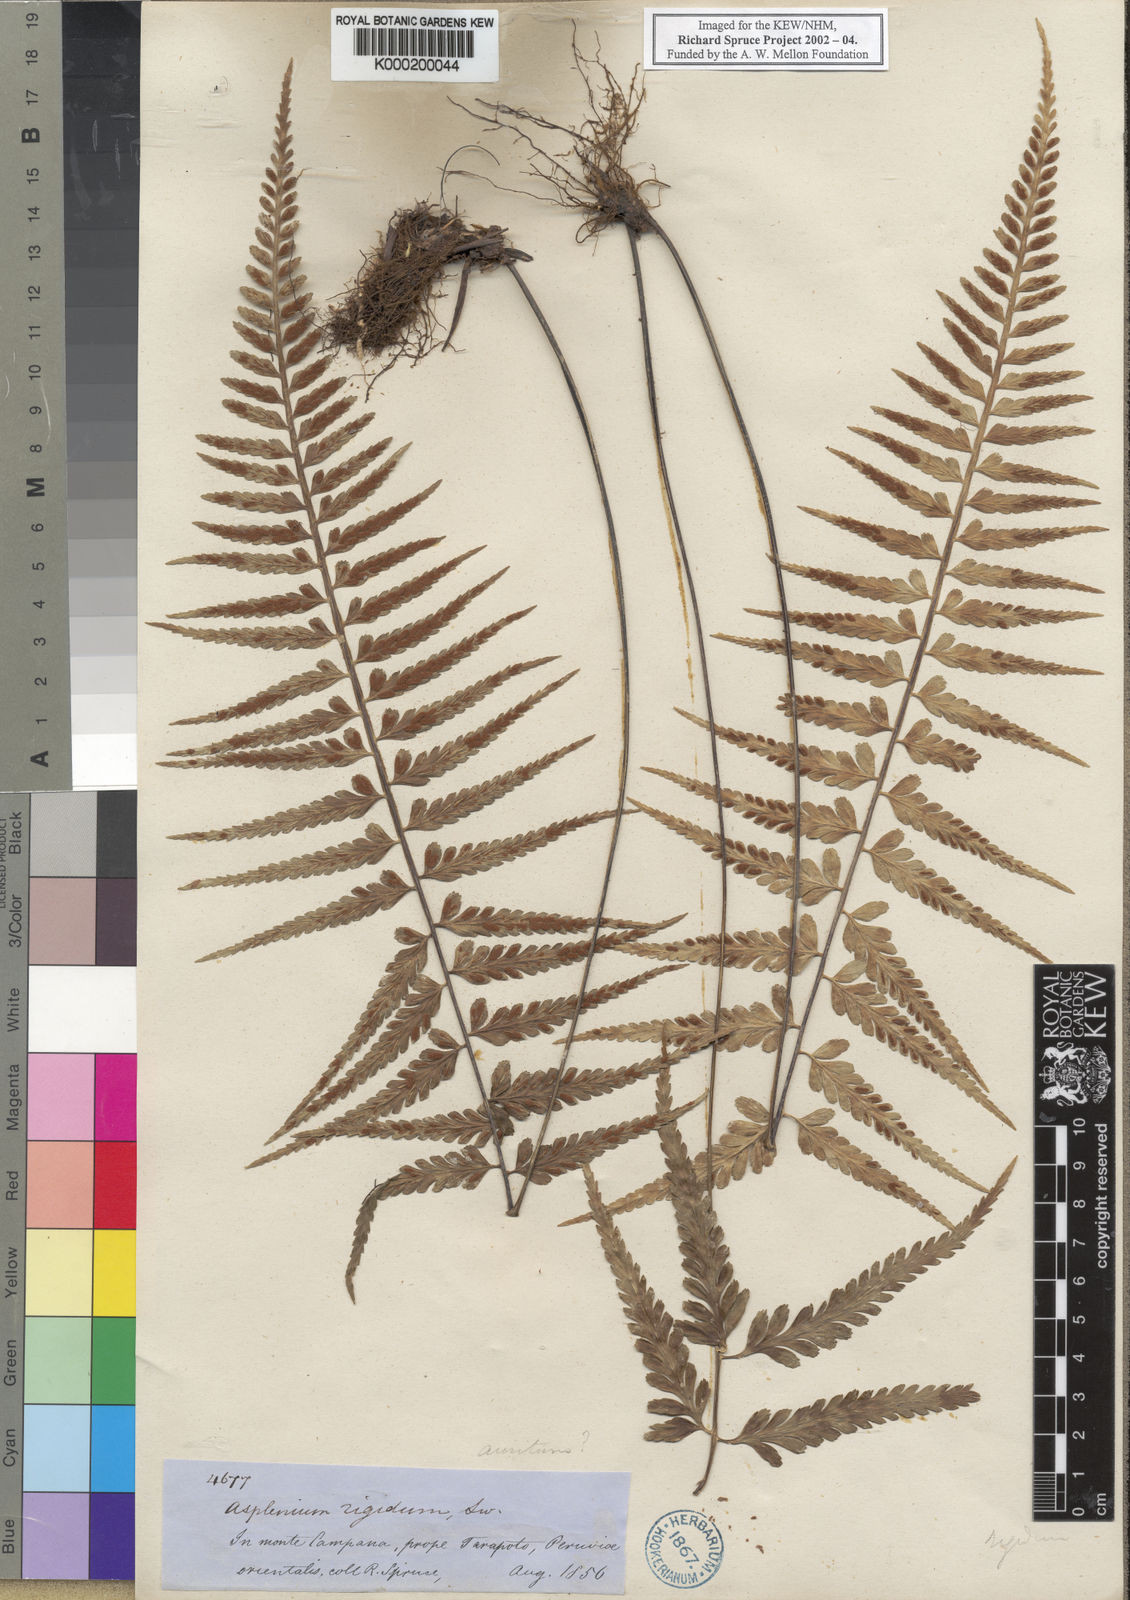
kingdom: Plantae
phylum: Tracheophyta
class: Polypodiopsida
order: Polypodiales
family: Aspleniaceae
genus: Asplenium
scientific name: Asplenium
